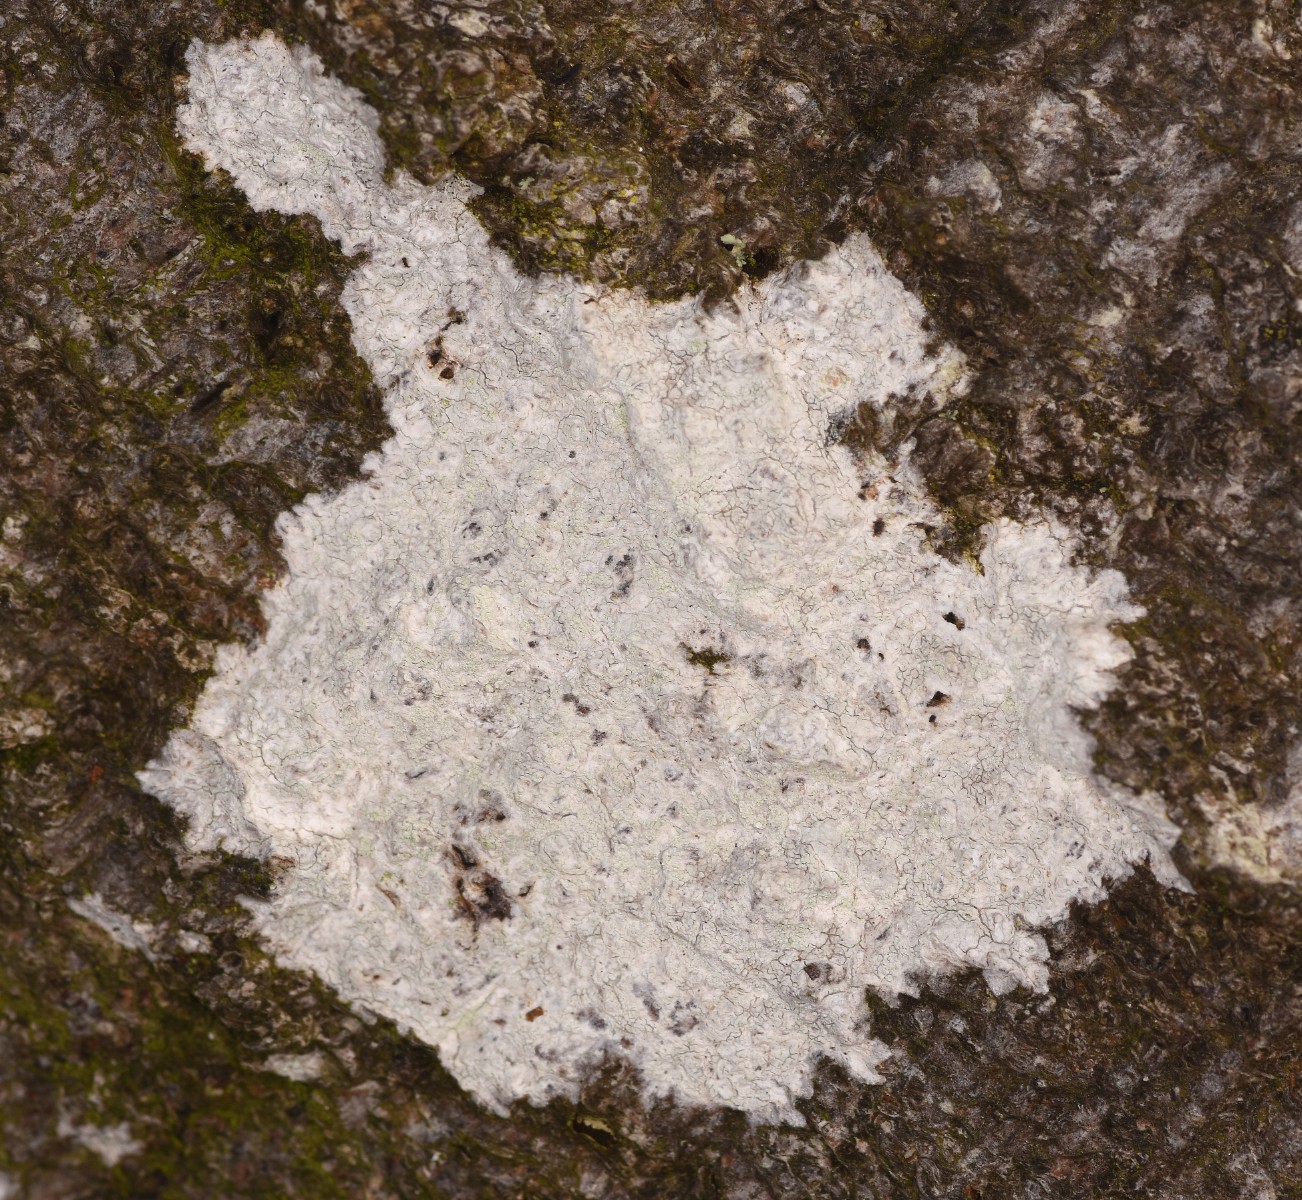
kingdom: Fungi
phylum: Ascomycota
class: Lecanoromycetes
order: Ostropales
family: Phlyctidaceae
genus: Phlyctis
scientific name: Phlyctis argena
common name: almindelig sølvlav
